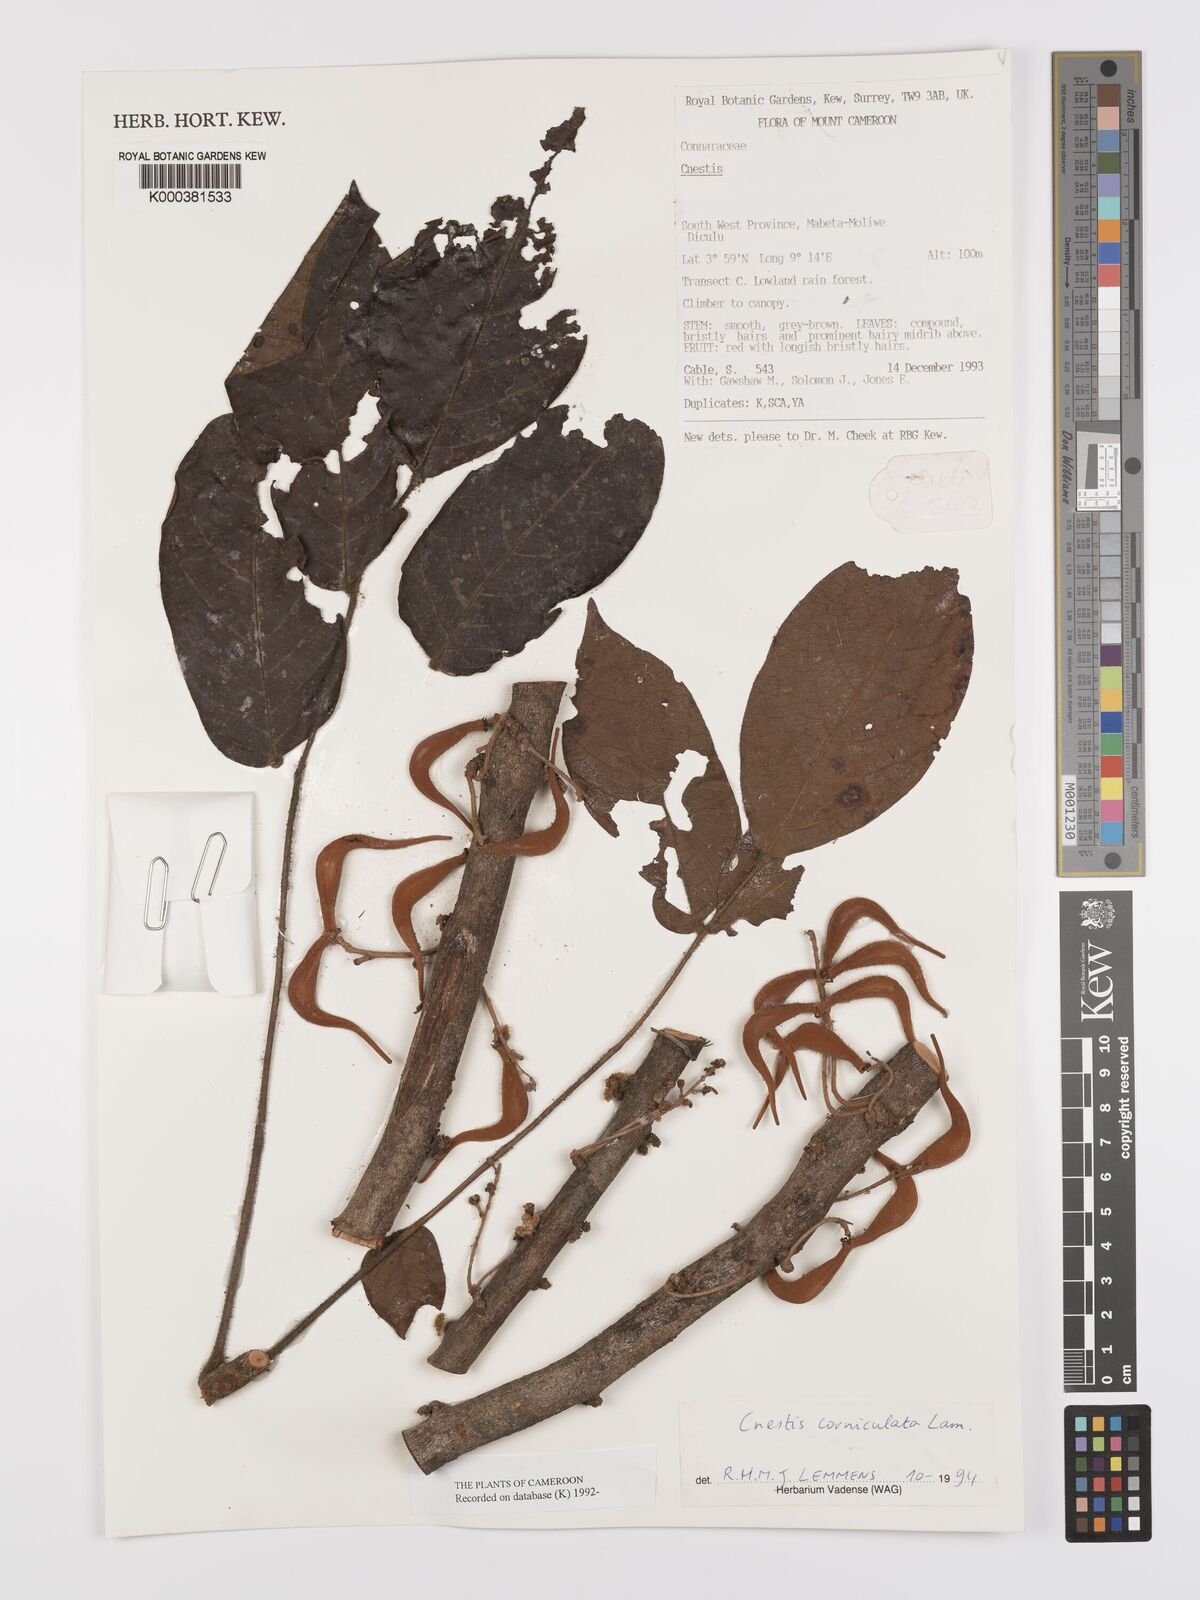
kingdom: Plantae
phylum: Tracheophyta
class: Magnoliopsida
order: Oxalidales
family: Connaraceae
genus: Cnestis
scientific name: Cnestis corniculata
